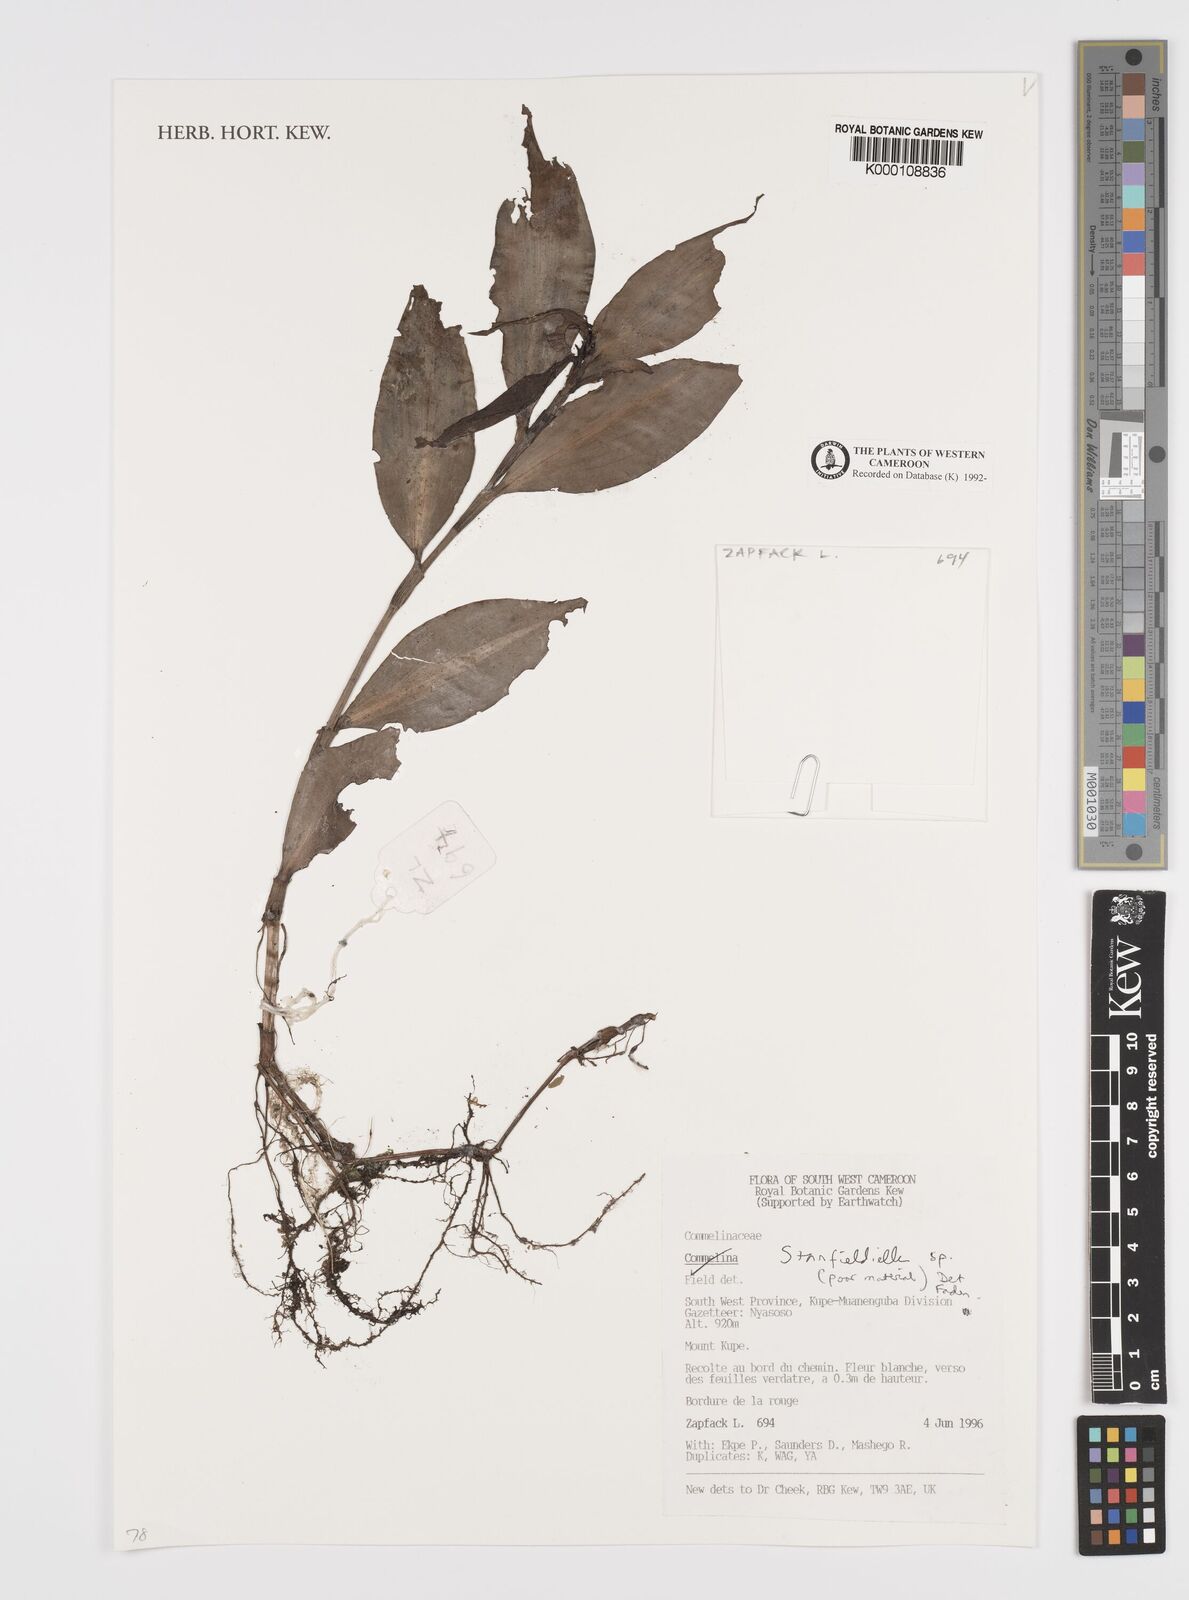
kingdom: Plantae
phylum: Tracheophyta
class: Liliopsida
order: Commelinales
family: Commelinaceae
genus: Stanfieldiella
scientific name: Stanfieldiella
